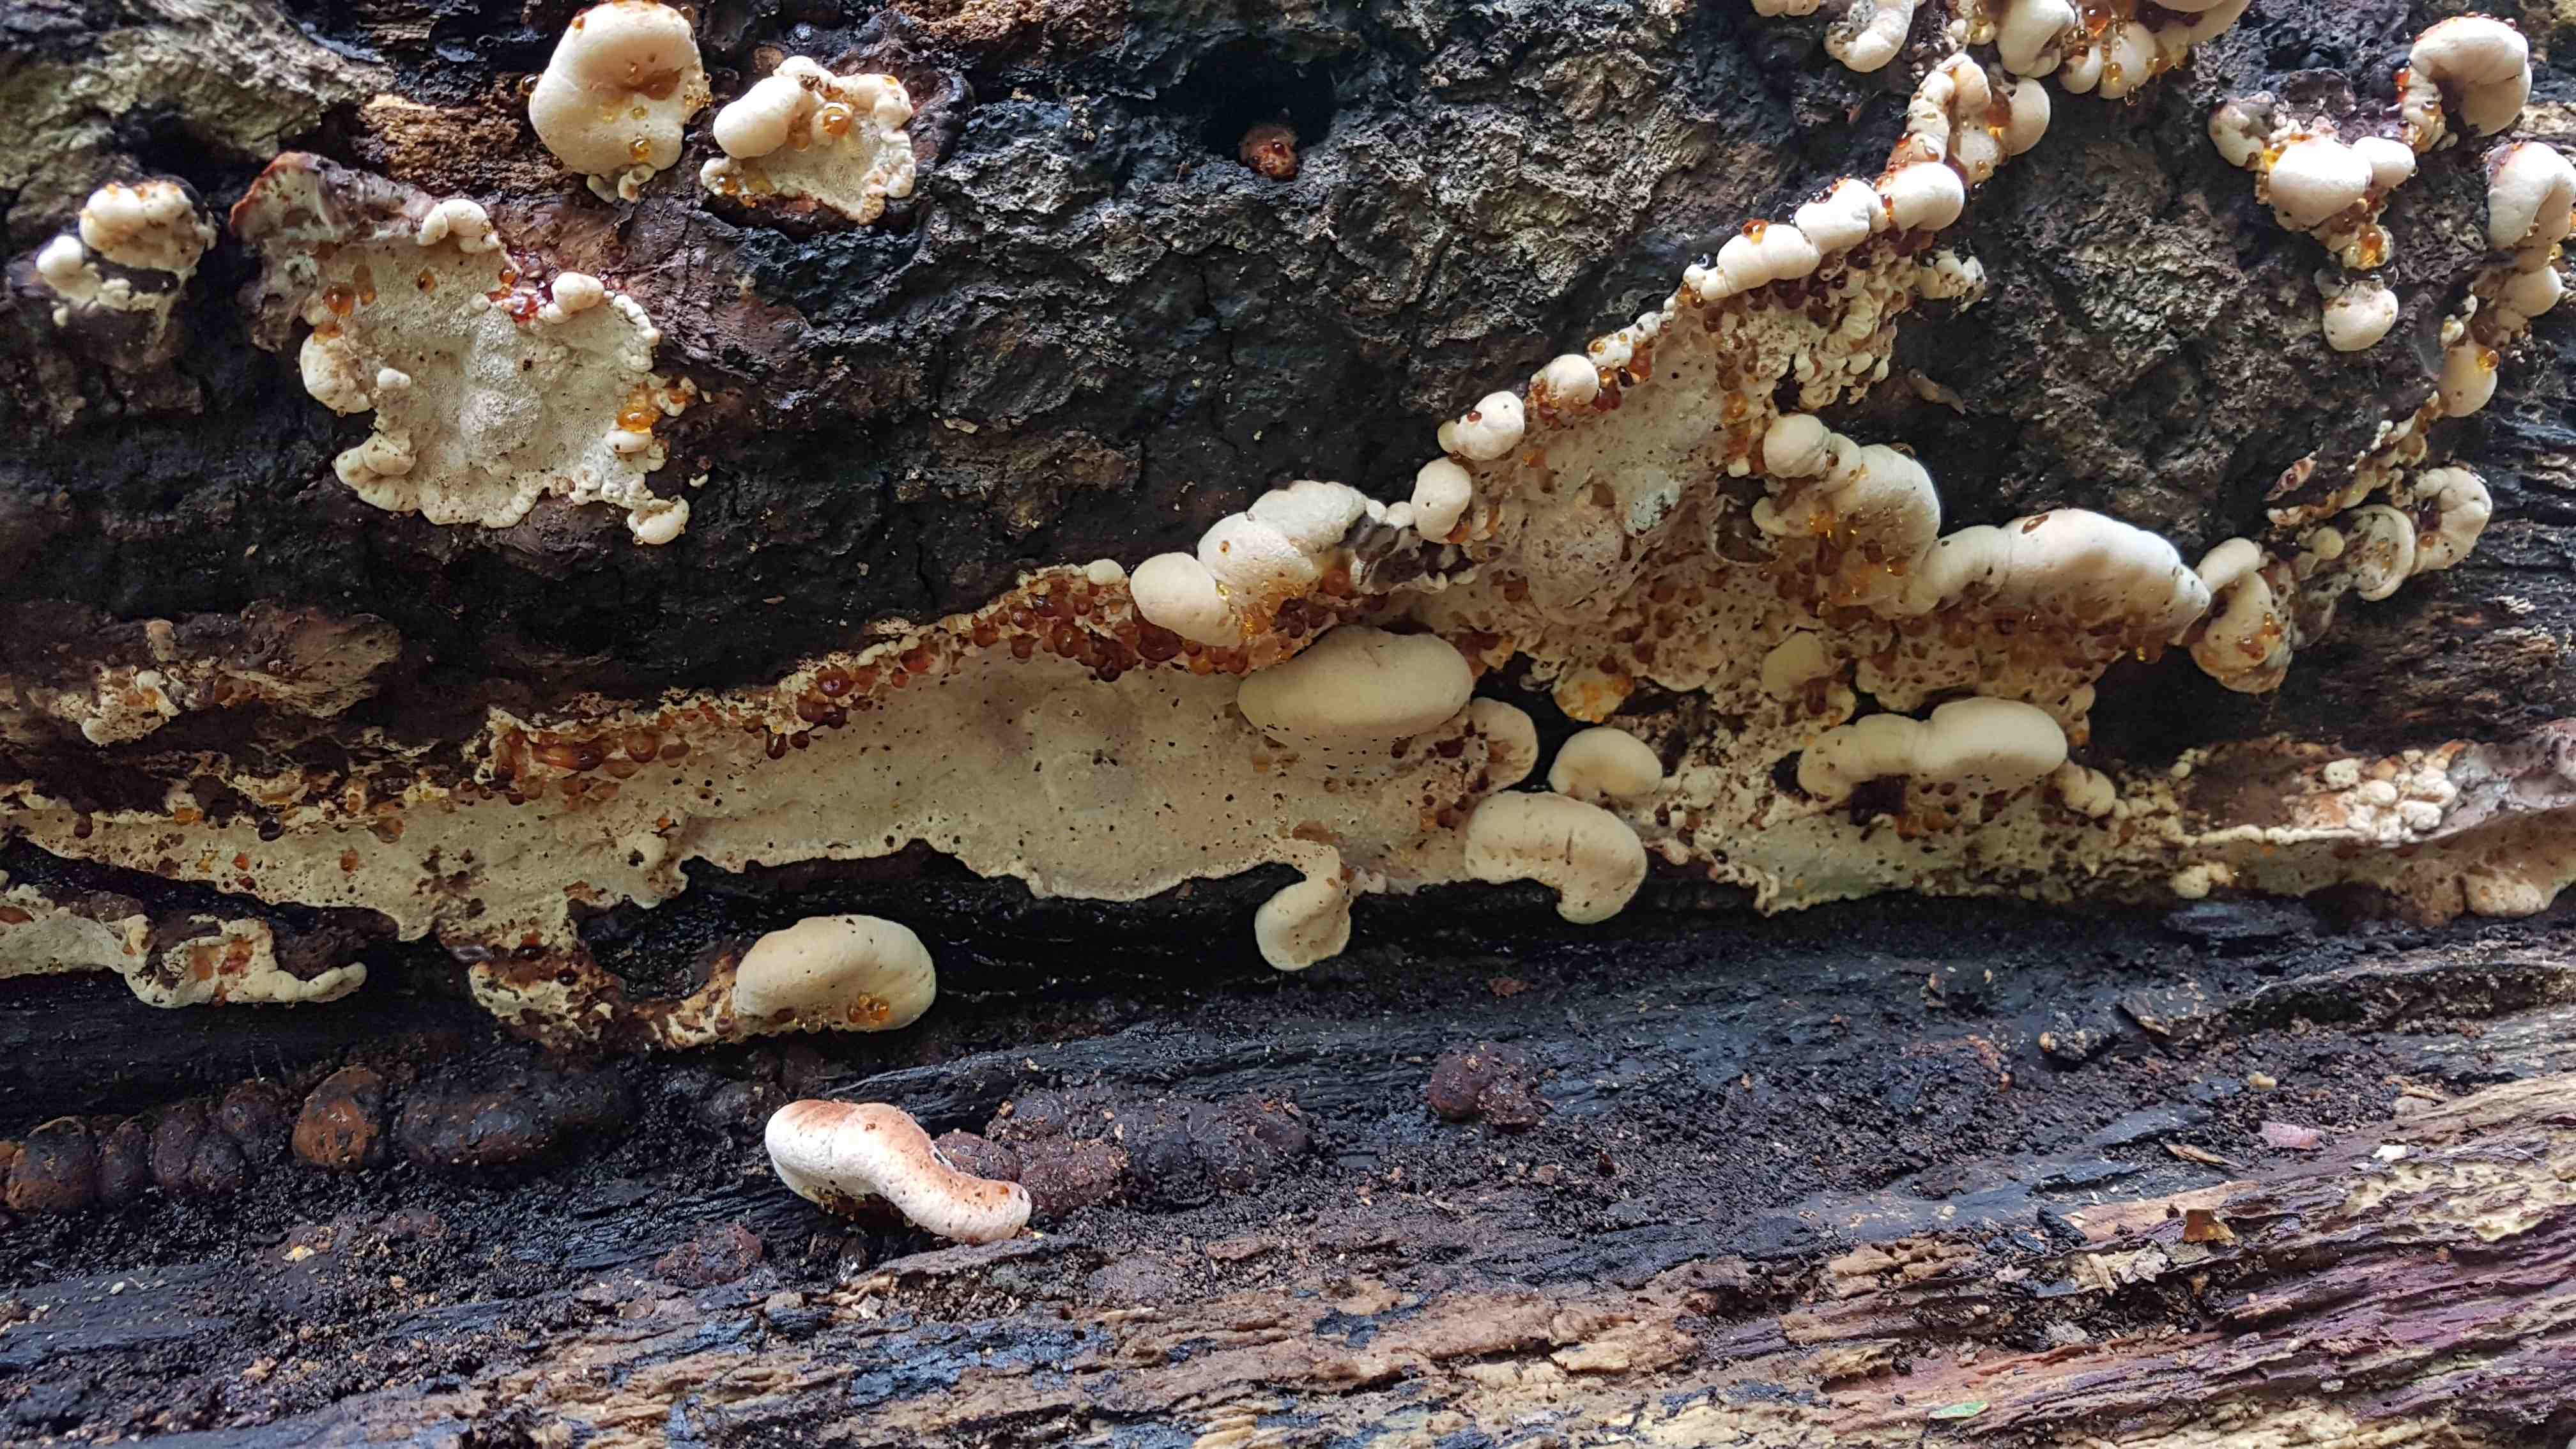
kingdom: Fungi
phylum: Basidiomycota
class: Agaricomycetes
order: Polyporales
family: Ischnodermataceae
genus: Ischnoderma
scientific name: Ischnoderma resinosum
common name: løv-tjæreporesvamp
